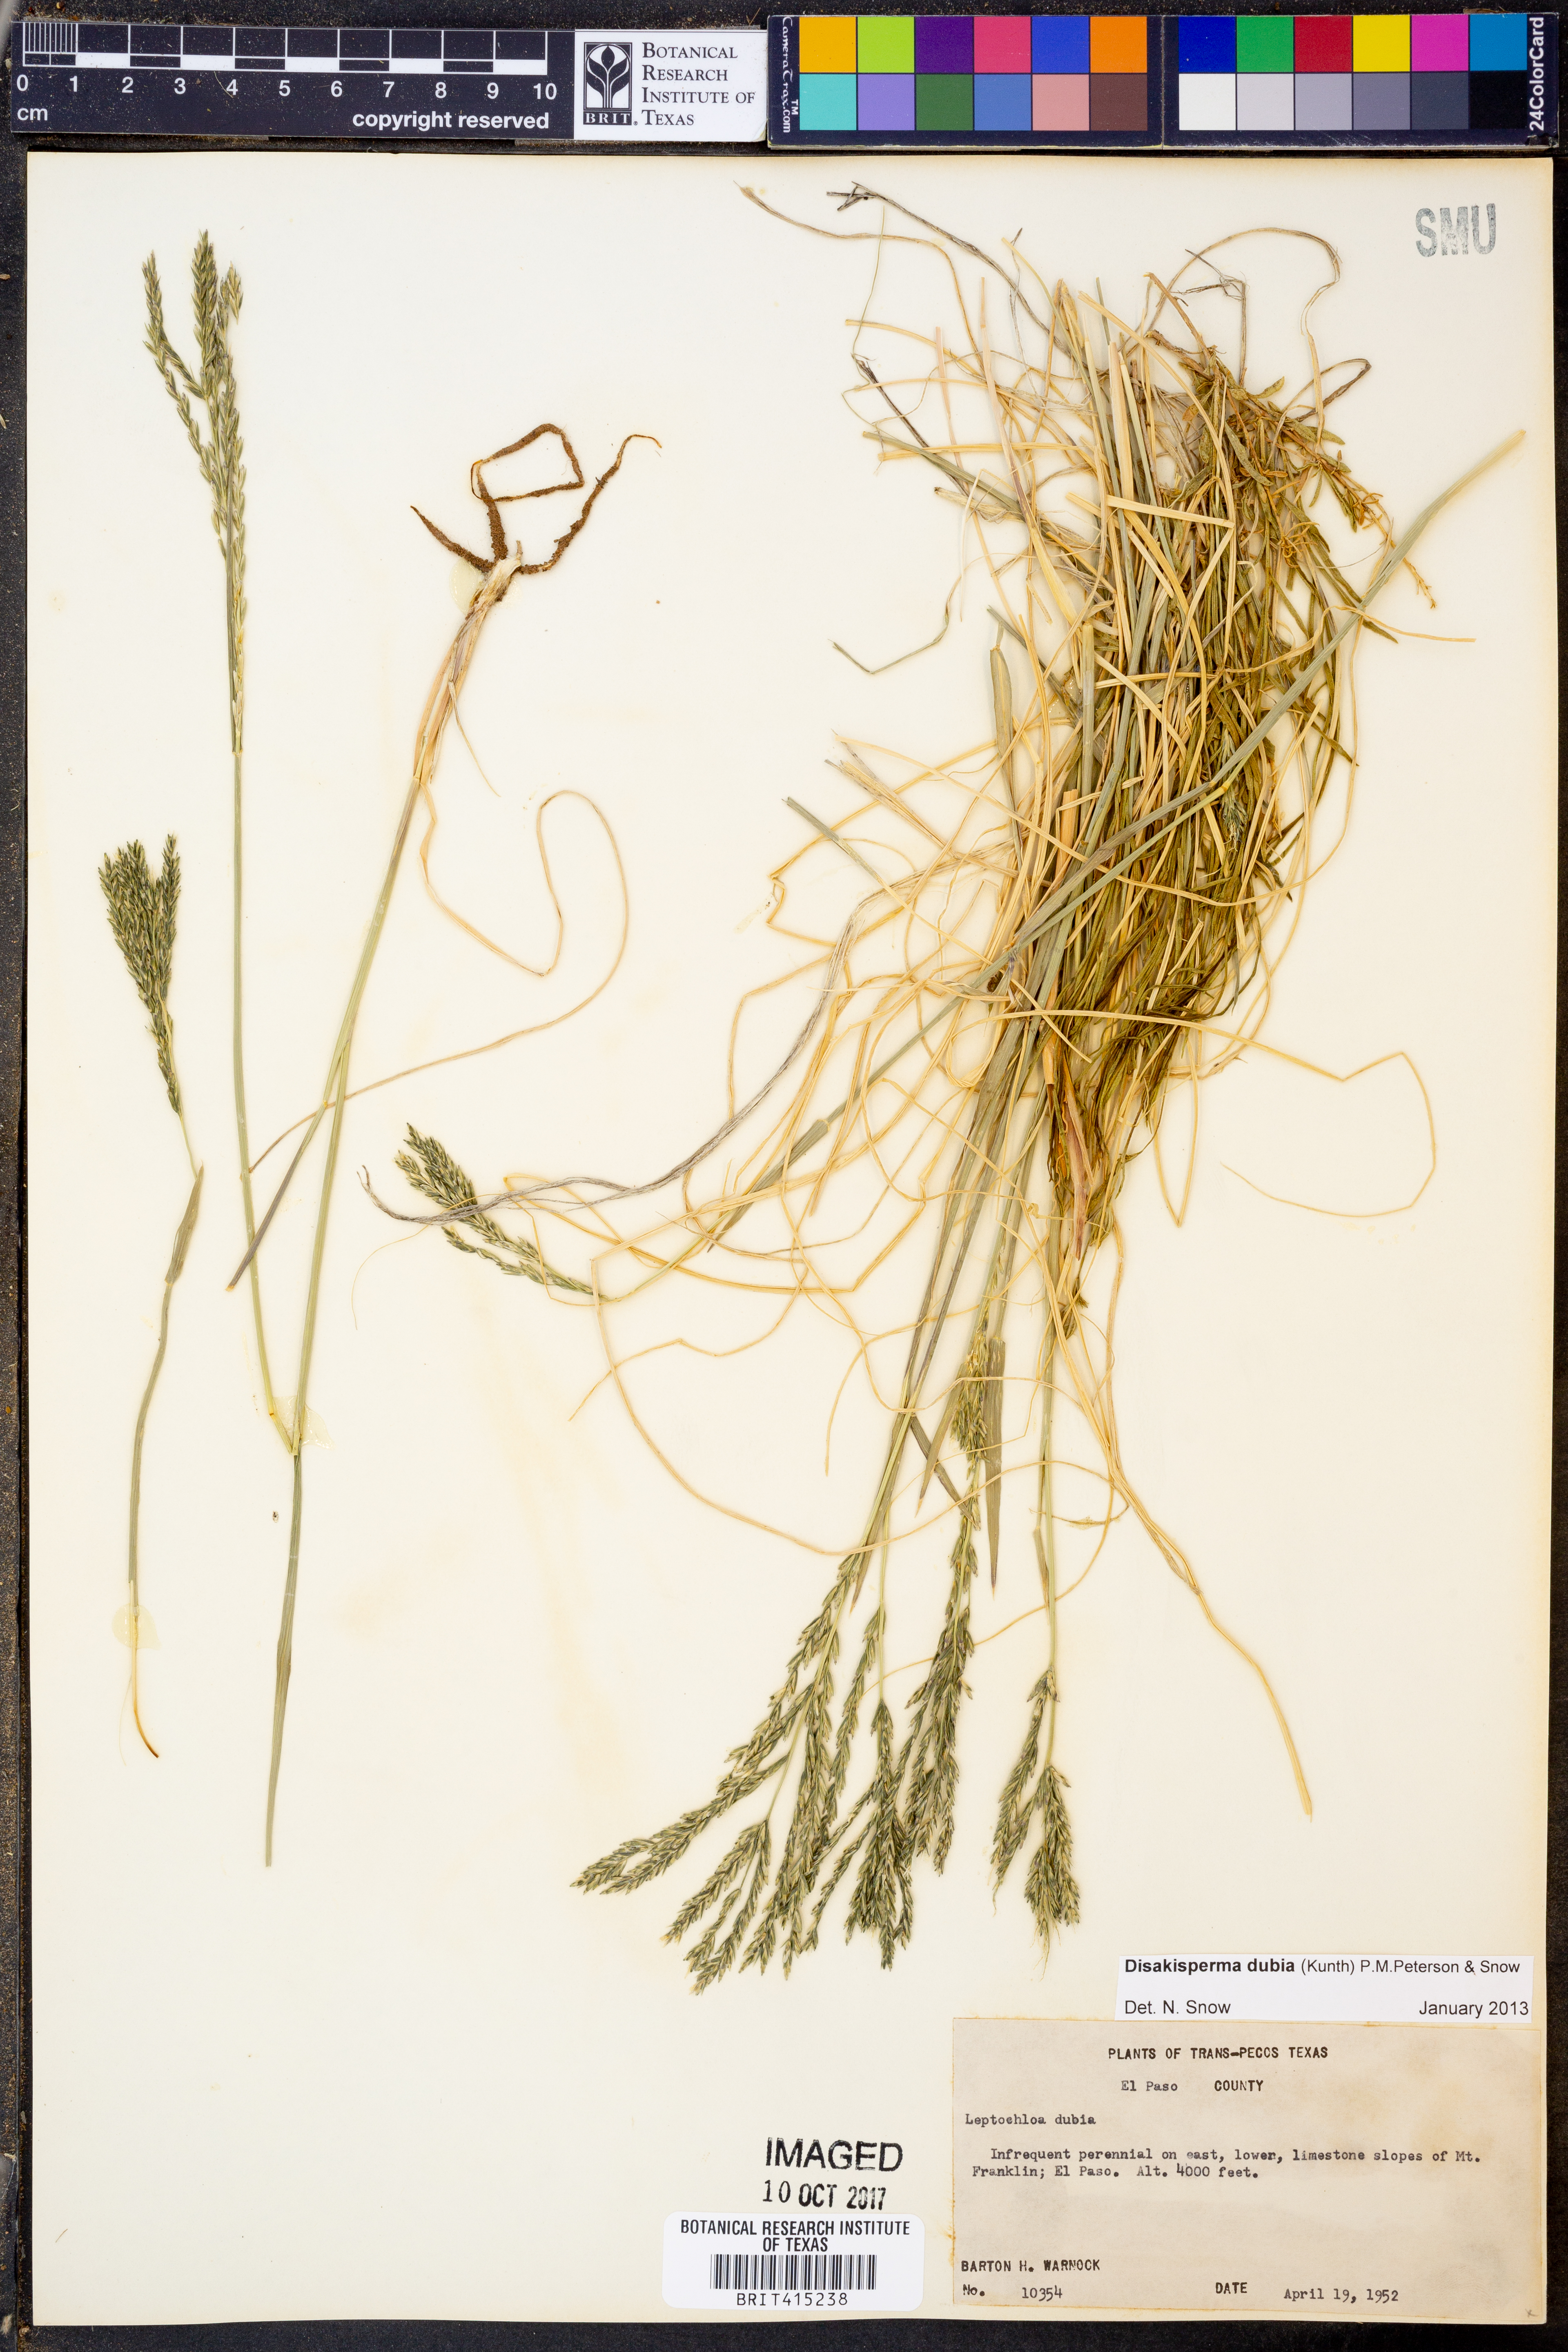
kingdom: Plantae
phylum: Tracheophyta
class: Liliopsida
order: Poales
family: Poaceae
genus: Disakisperma
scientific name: Disakisperma dubium
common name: Green sprangletop
